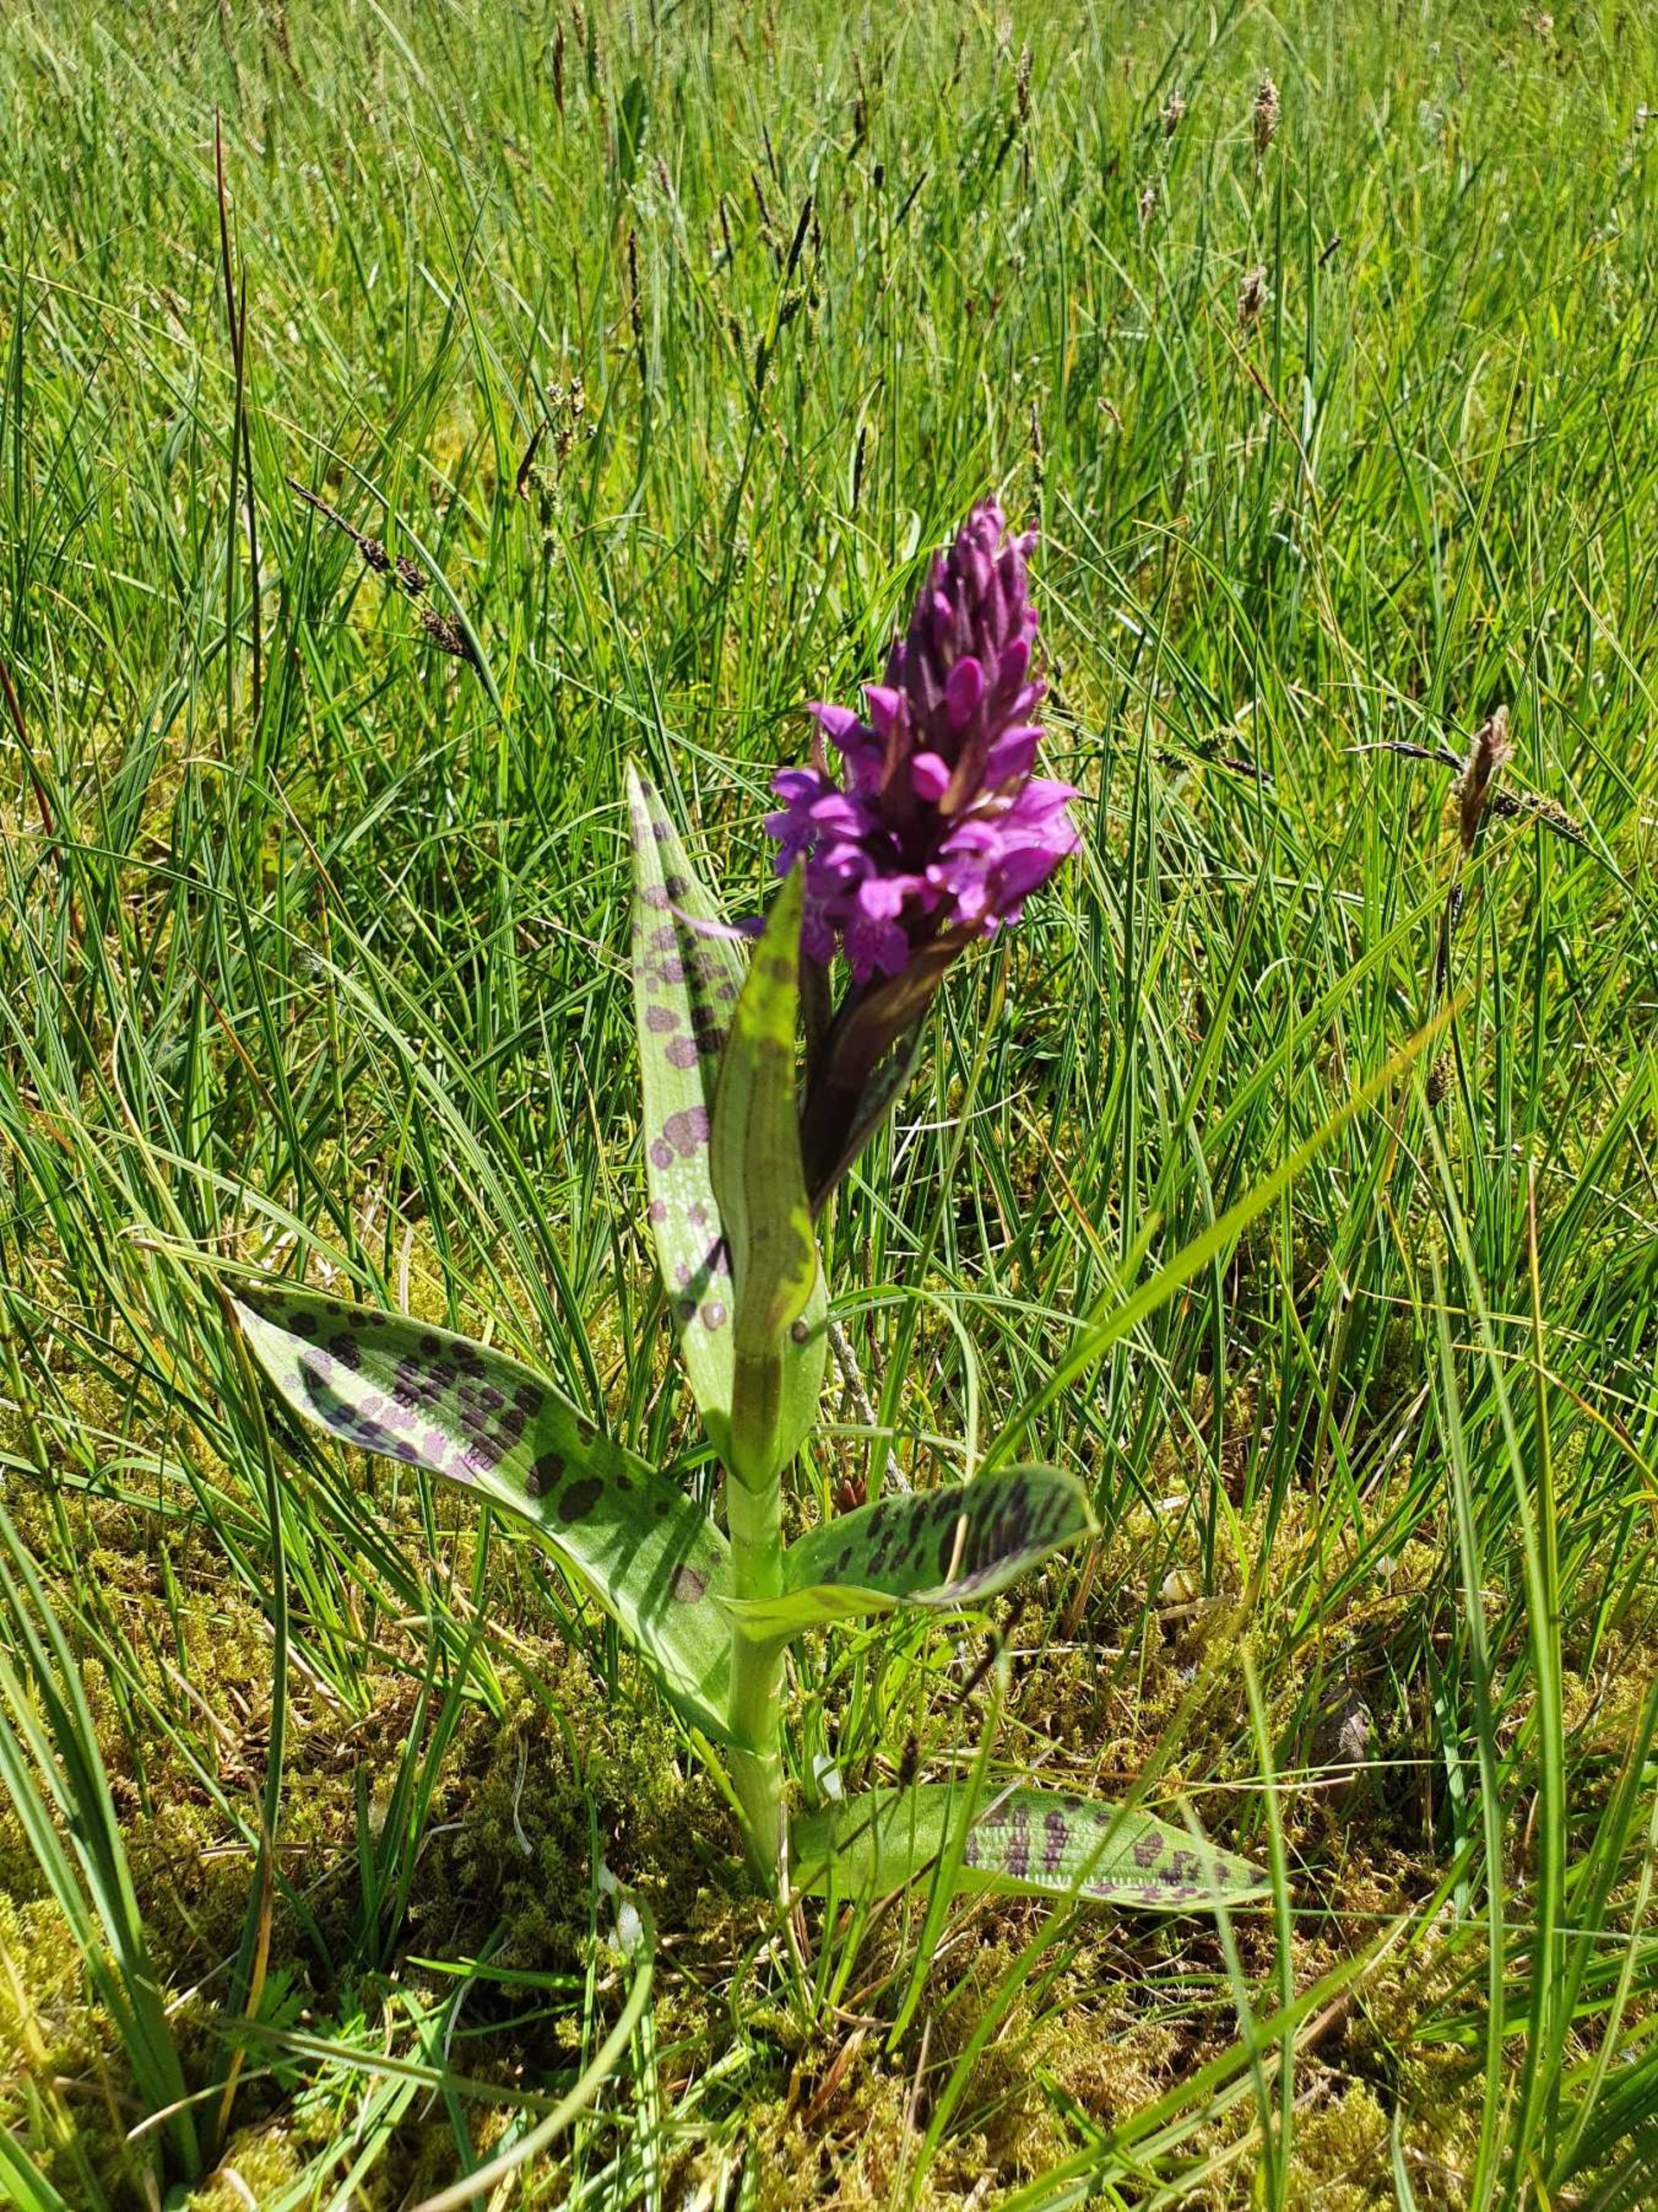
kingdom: Plantae
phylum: Tracheophyta
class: Liliopsida
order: Asparagales
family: Orchidaceae
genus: Dactylorhiza
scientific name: Dactylorhiza majalis
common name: Maj-gøgeurt
